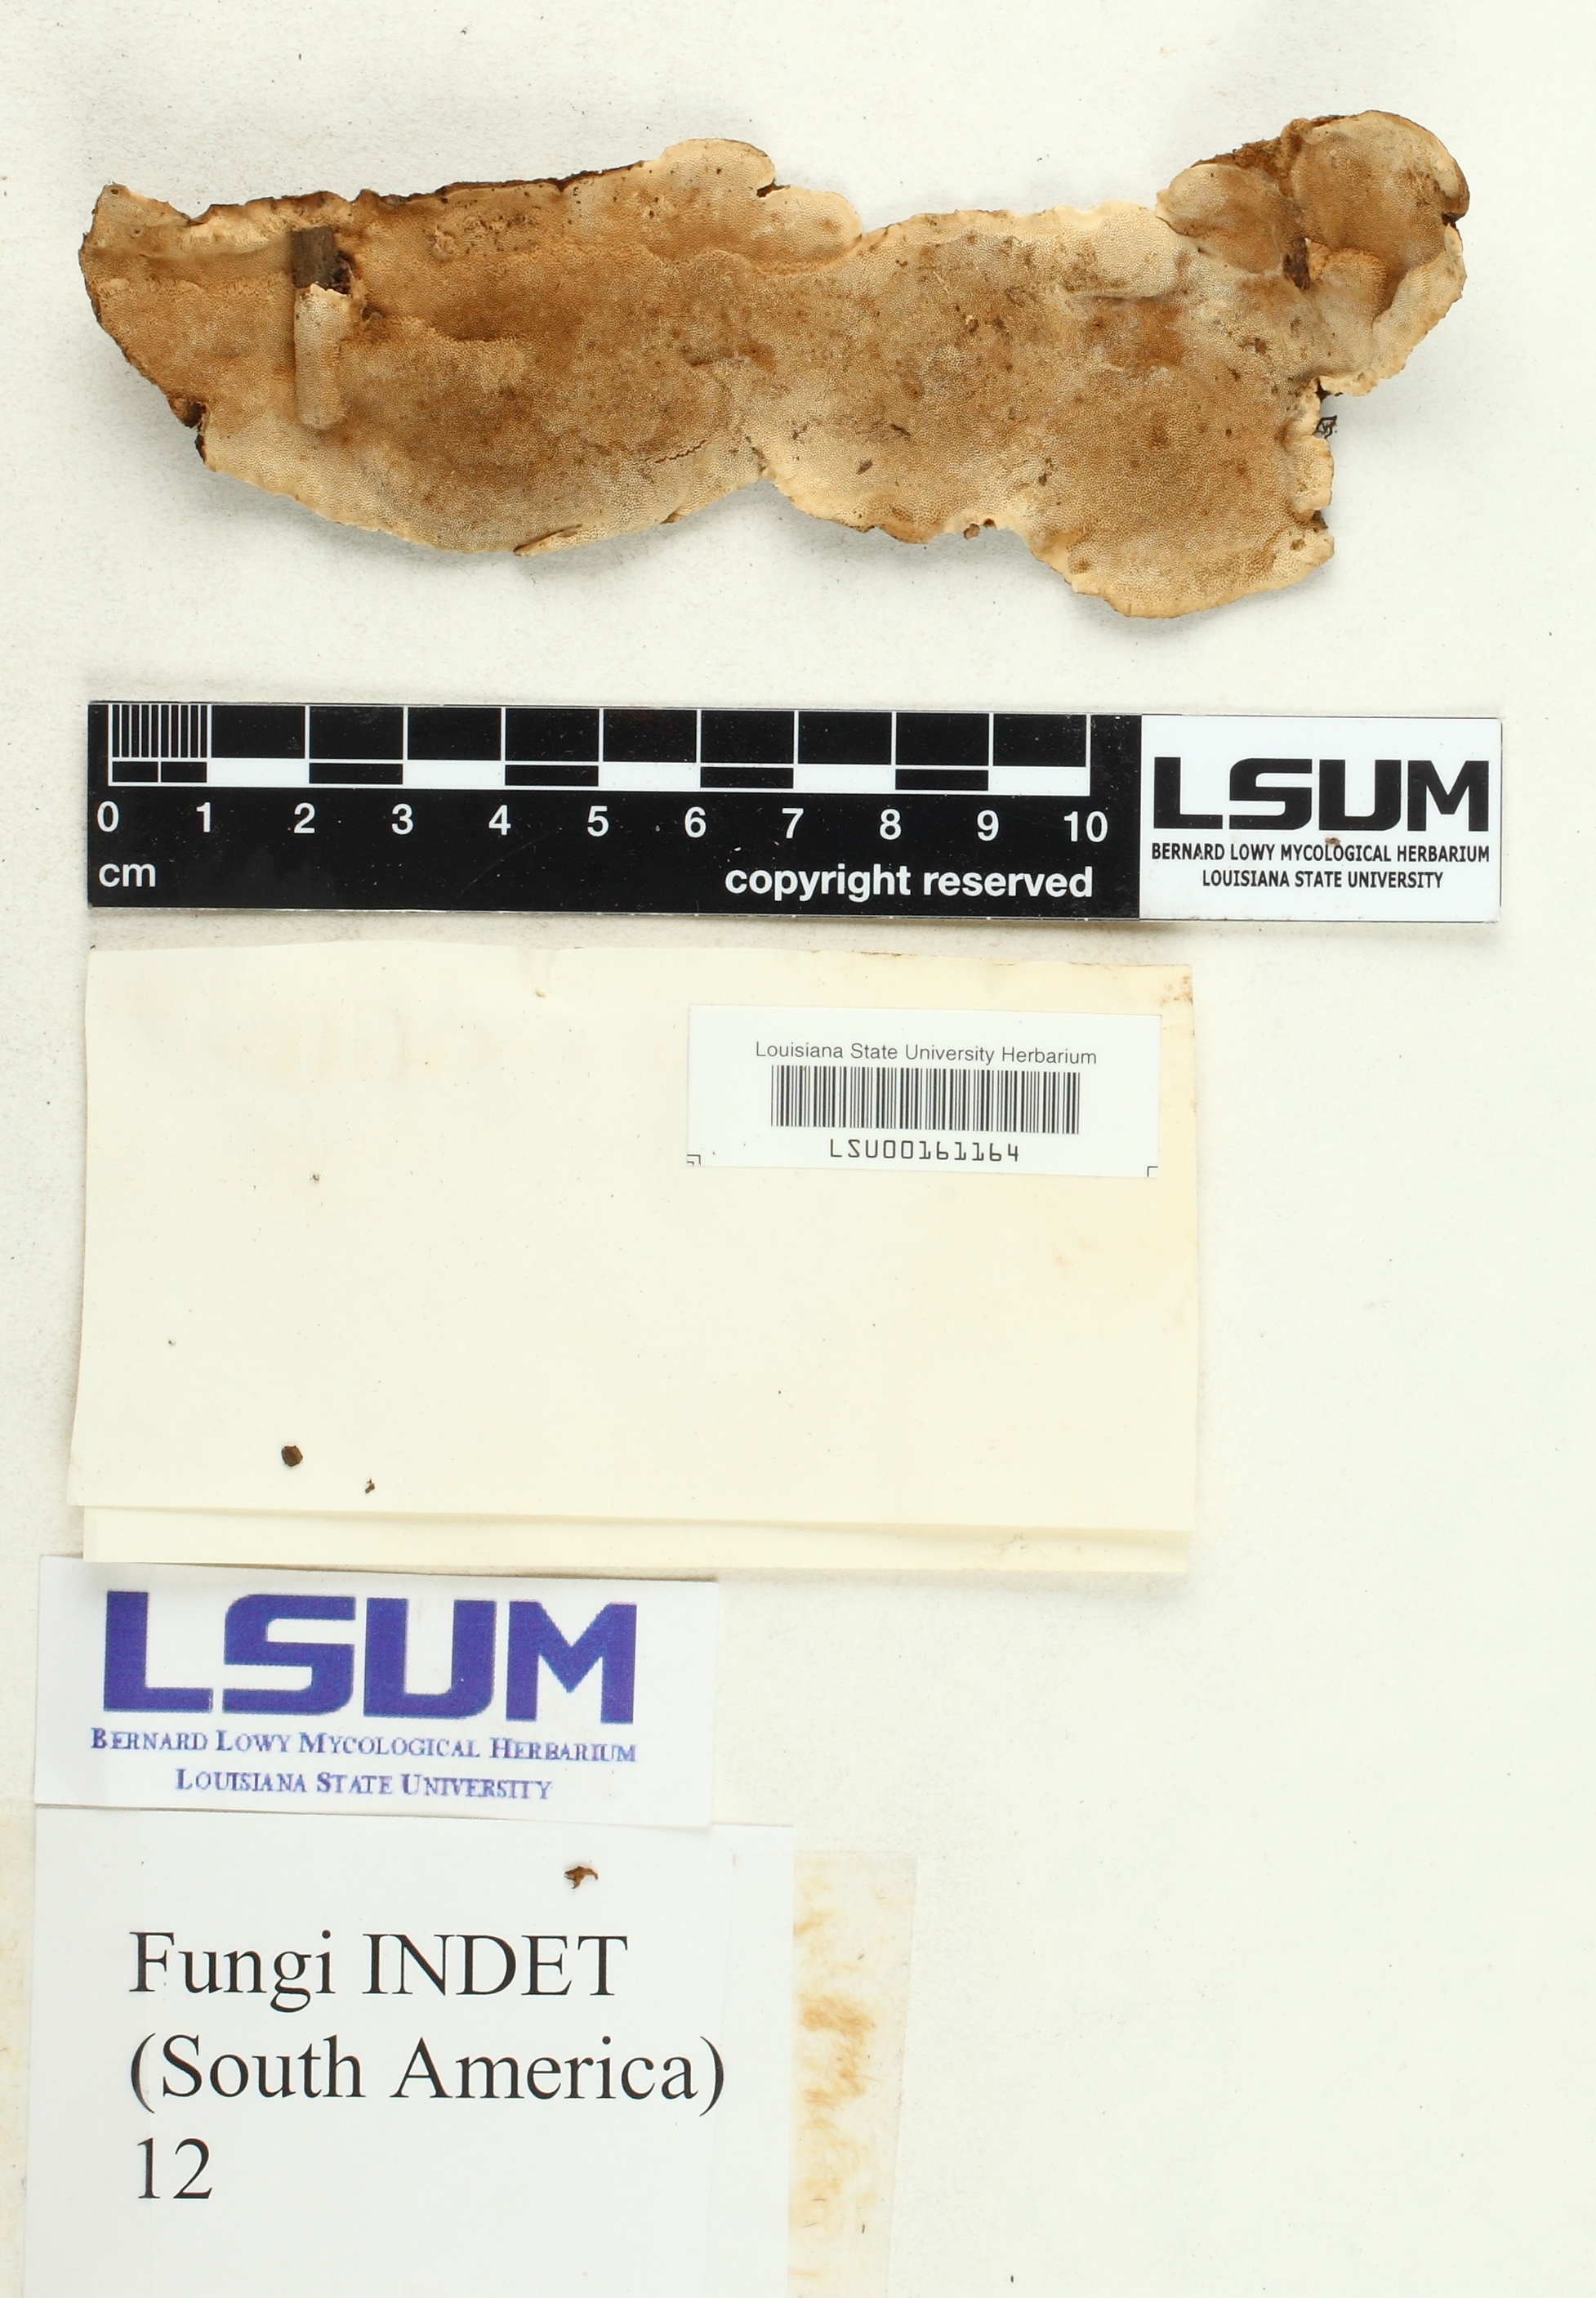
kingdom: Fungi
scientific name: Fungi
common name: Fungi
